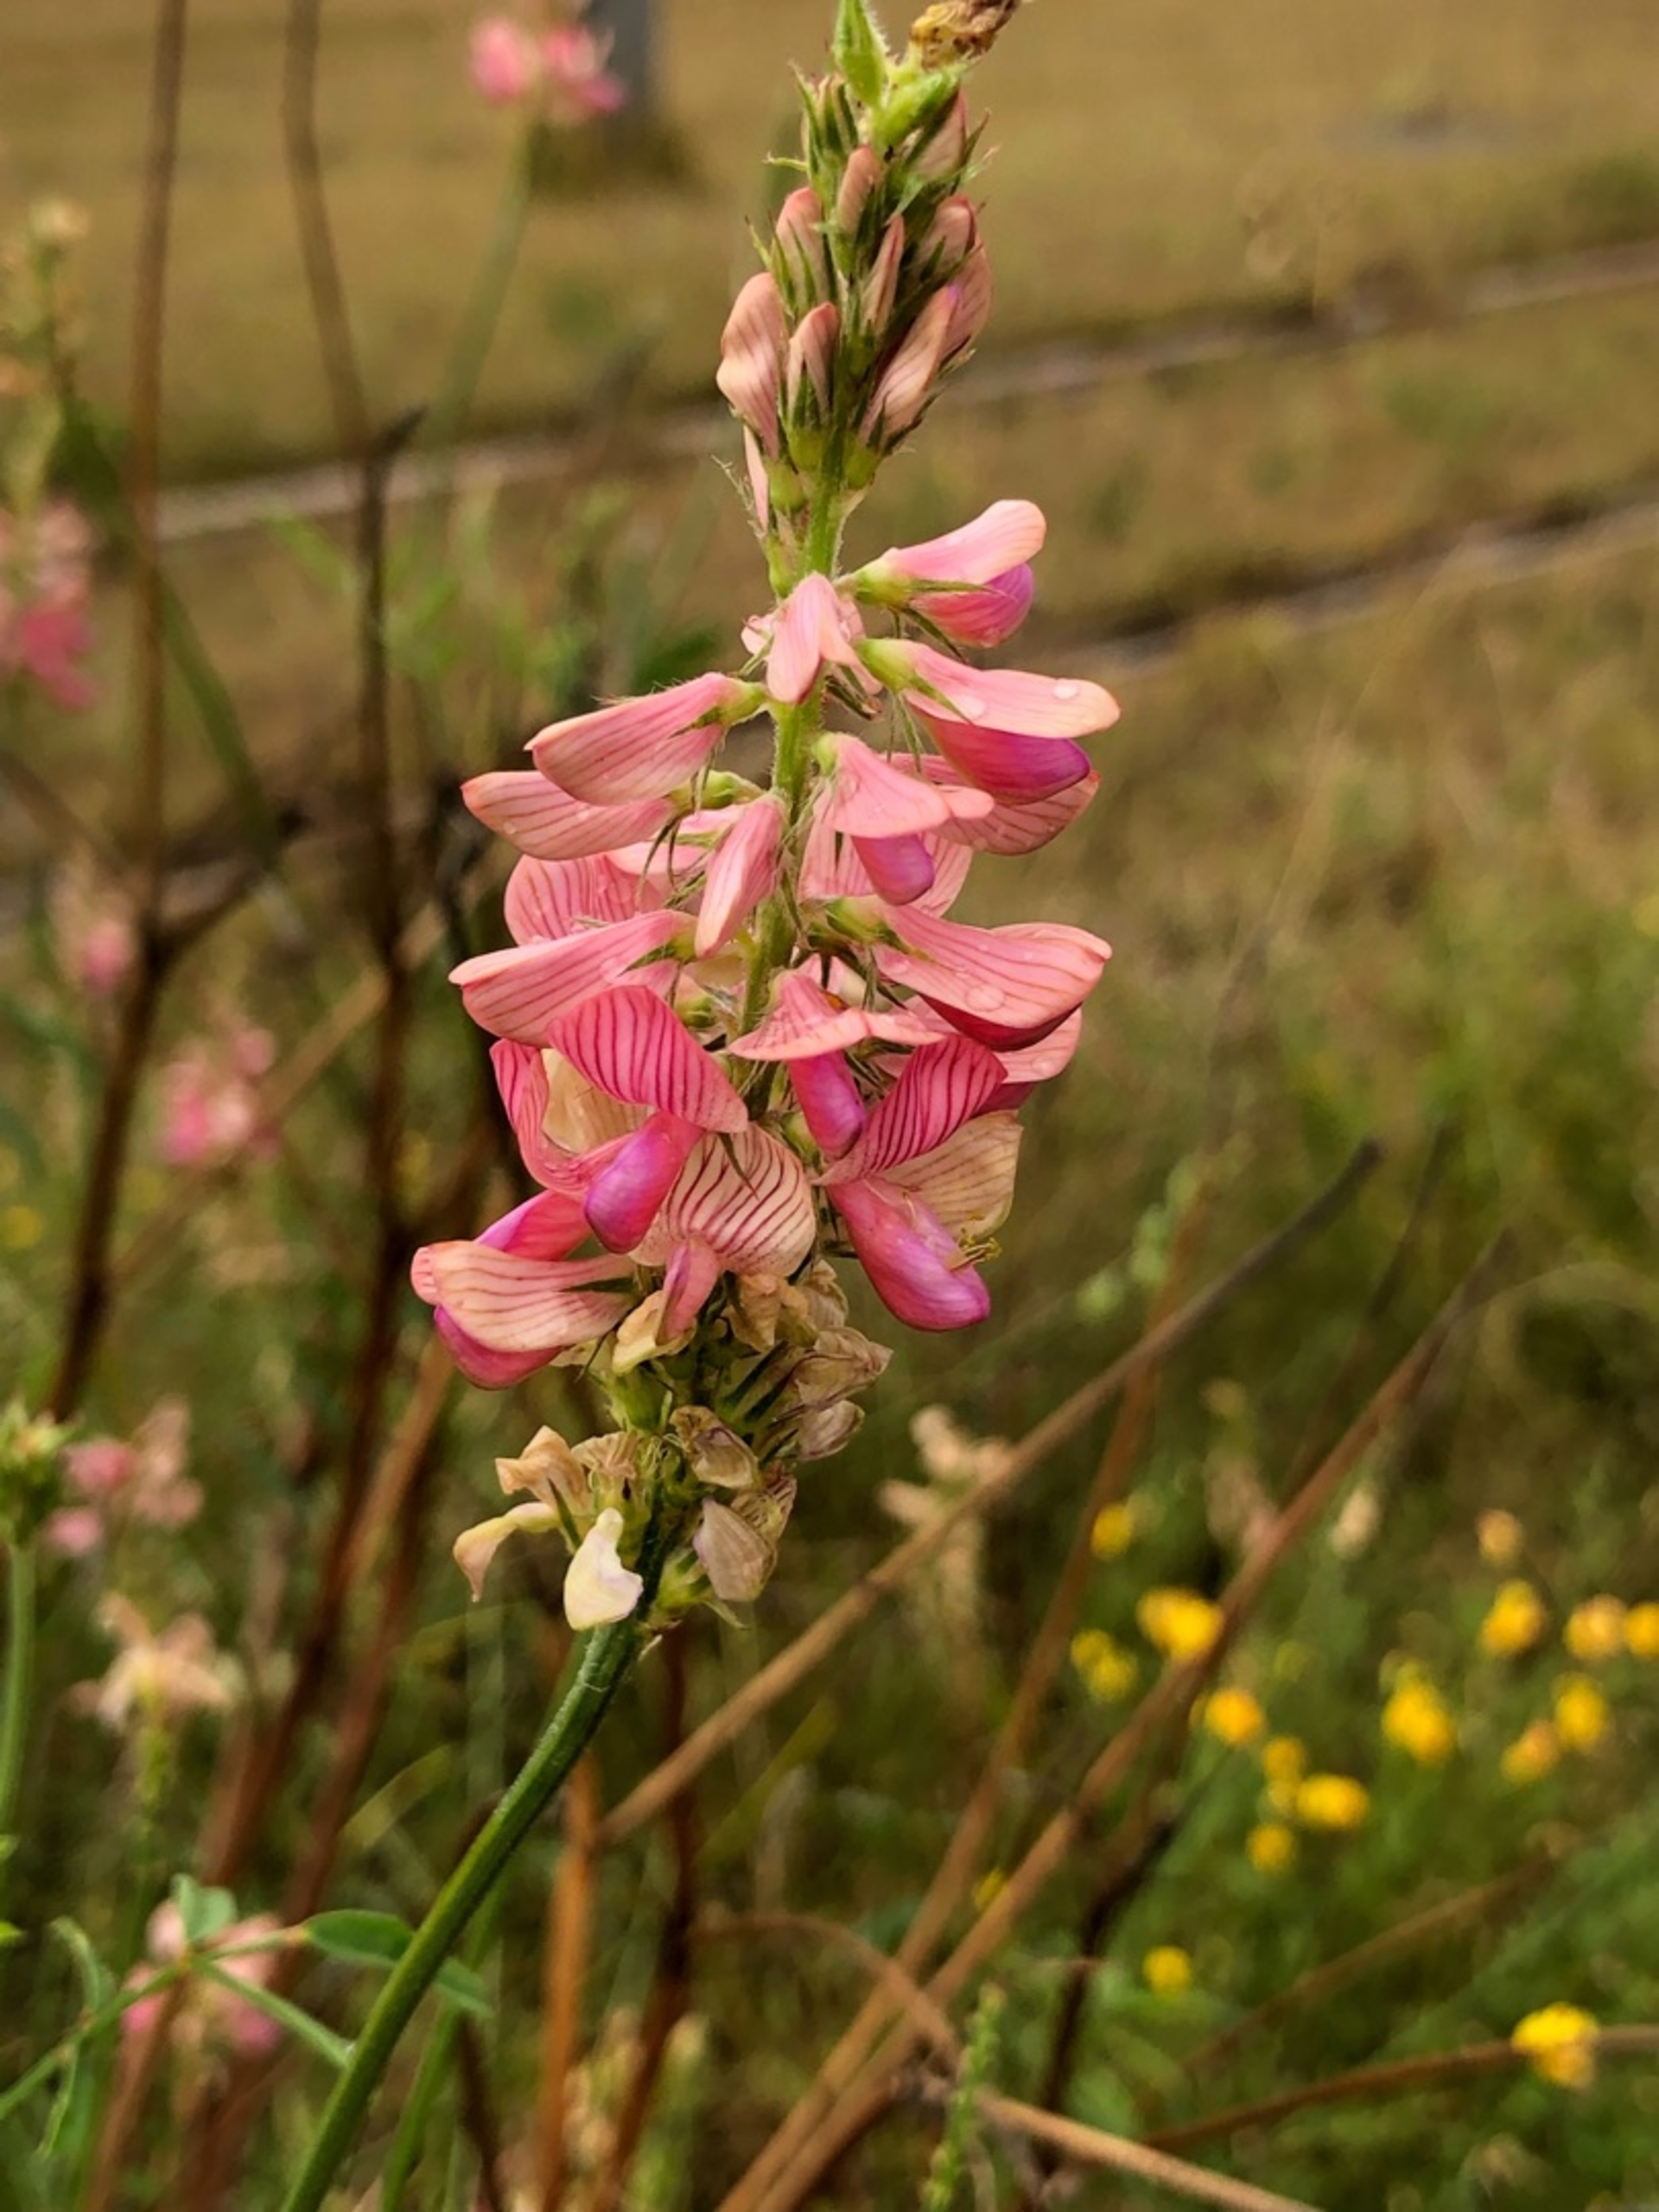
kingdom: Plantae
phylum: Tracheophyta
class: Magnoliopsida
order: Fabales
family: Fabaceae
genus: Onobrychis
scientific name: Onobrychis viciifolia
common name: Esparsette
